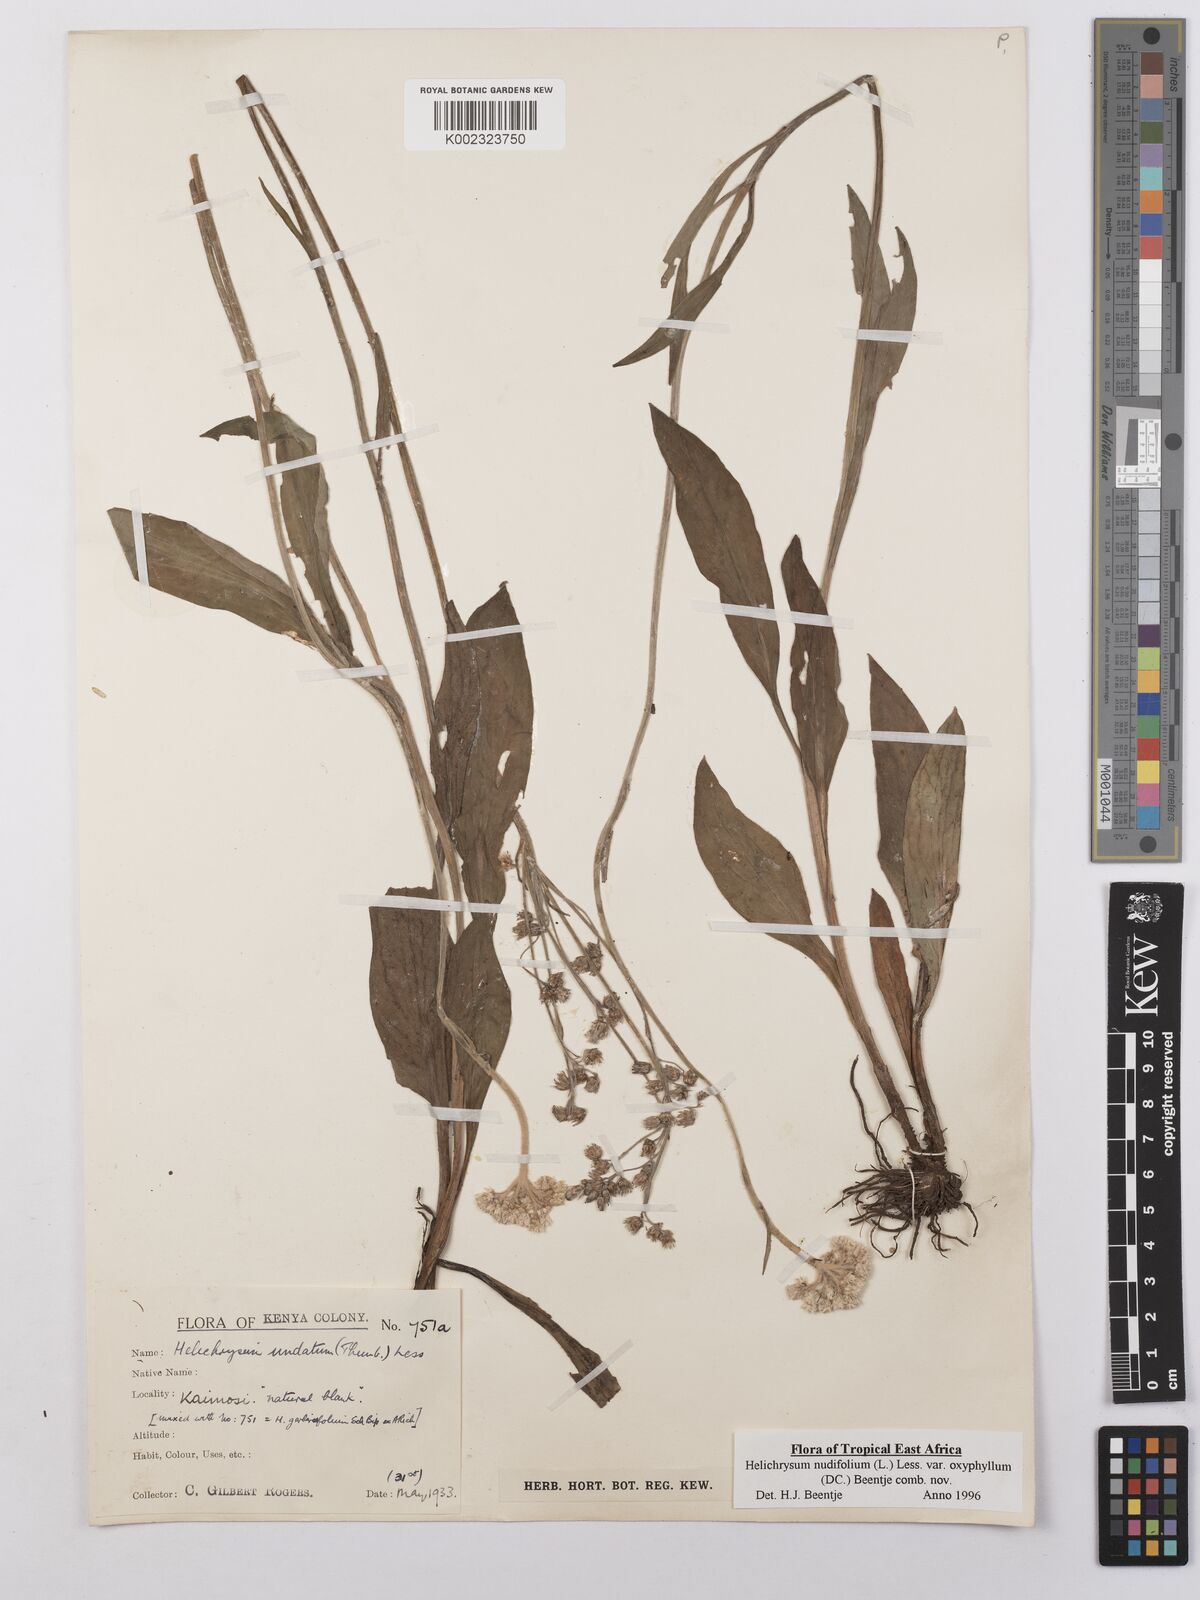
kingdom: Plantae
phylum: Tracheophyta
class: Magnoliopsida
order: Asterales
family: Asteraceae
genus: Helichrysum
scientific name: Helichrysum nudifolium
